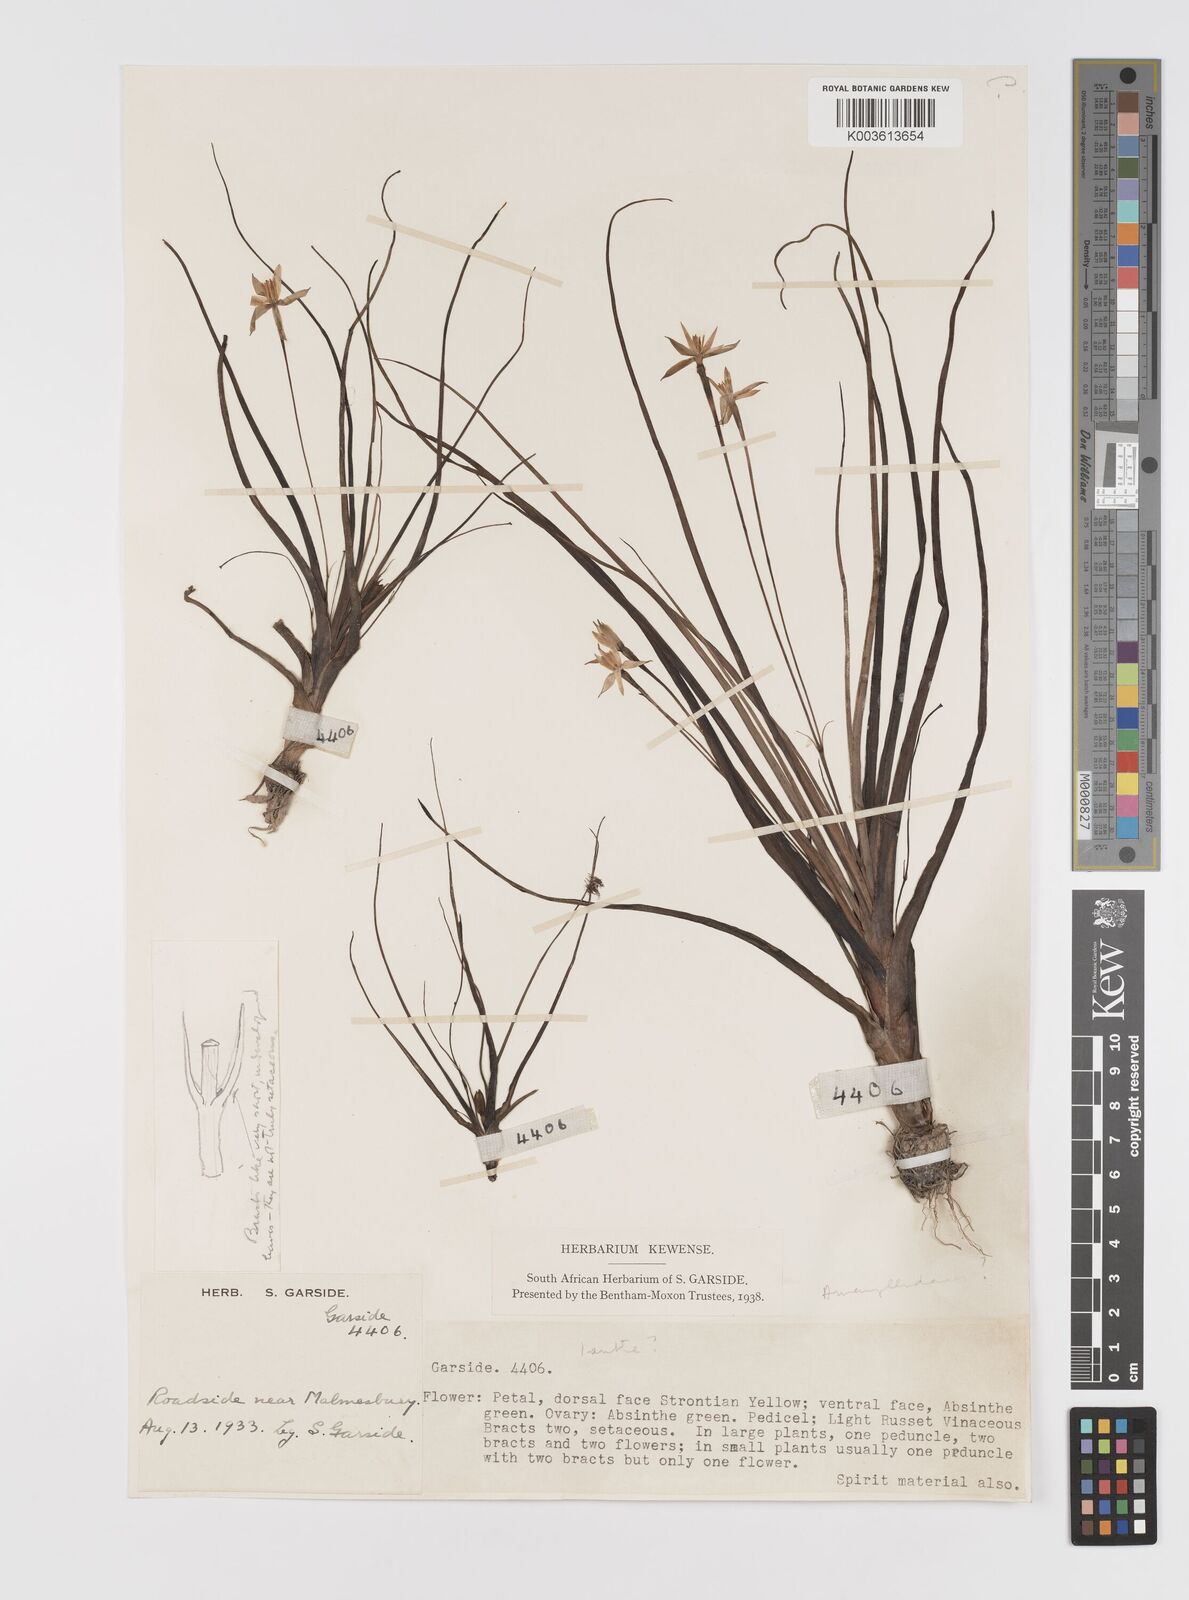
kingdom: Plantae
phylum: Tracheophyta
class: Liliopsida
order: Asparagales
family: Hypoxidaceae
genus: Pauridia
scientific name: Pauridia
